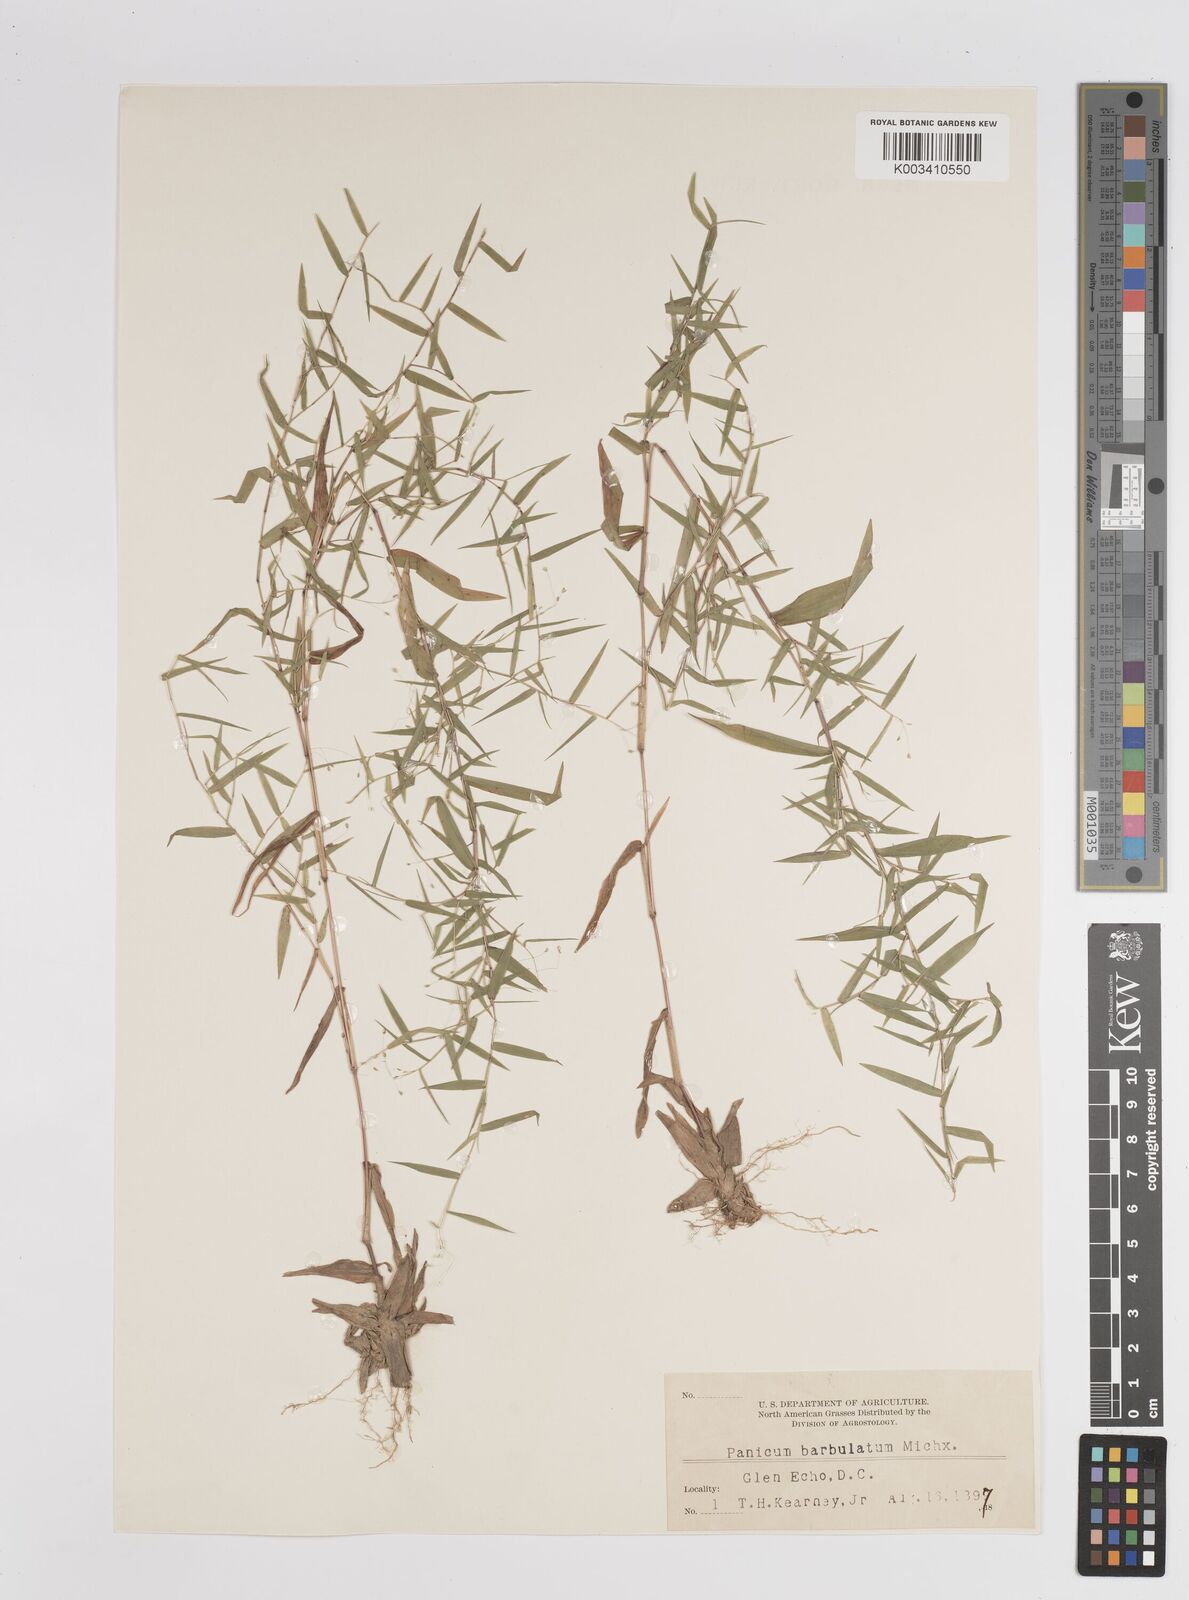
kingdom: Plantae
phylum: Tracheophyta
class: Liliopsida
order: Poales
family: Poaceae
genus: Dichanthelium
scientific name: Dichanthelium dichotomum
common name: Cypress panicgrass
